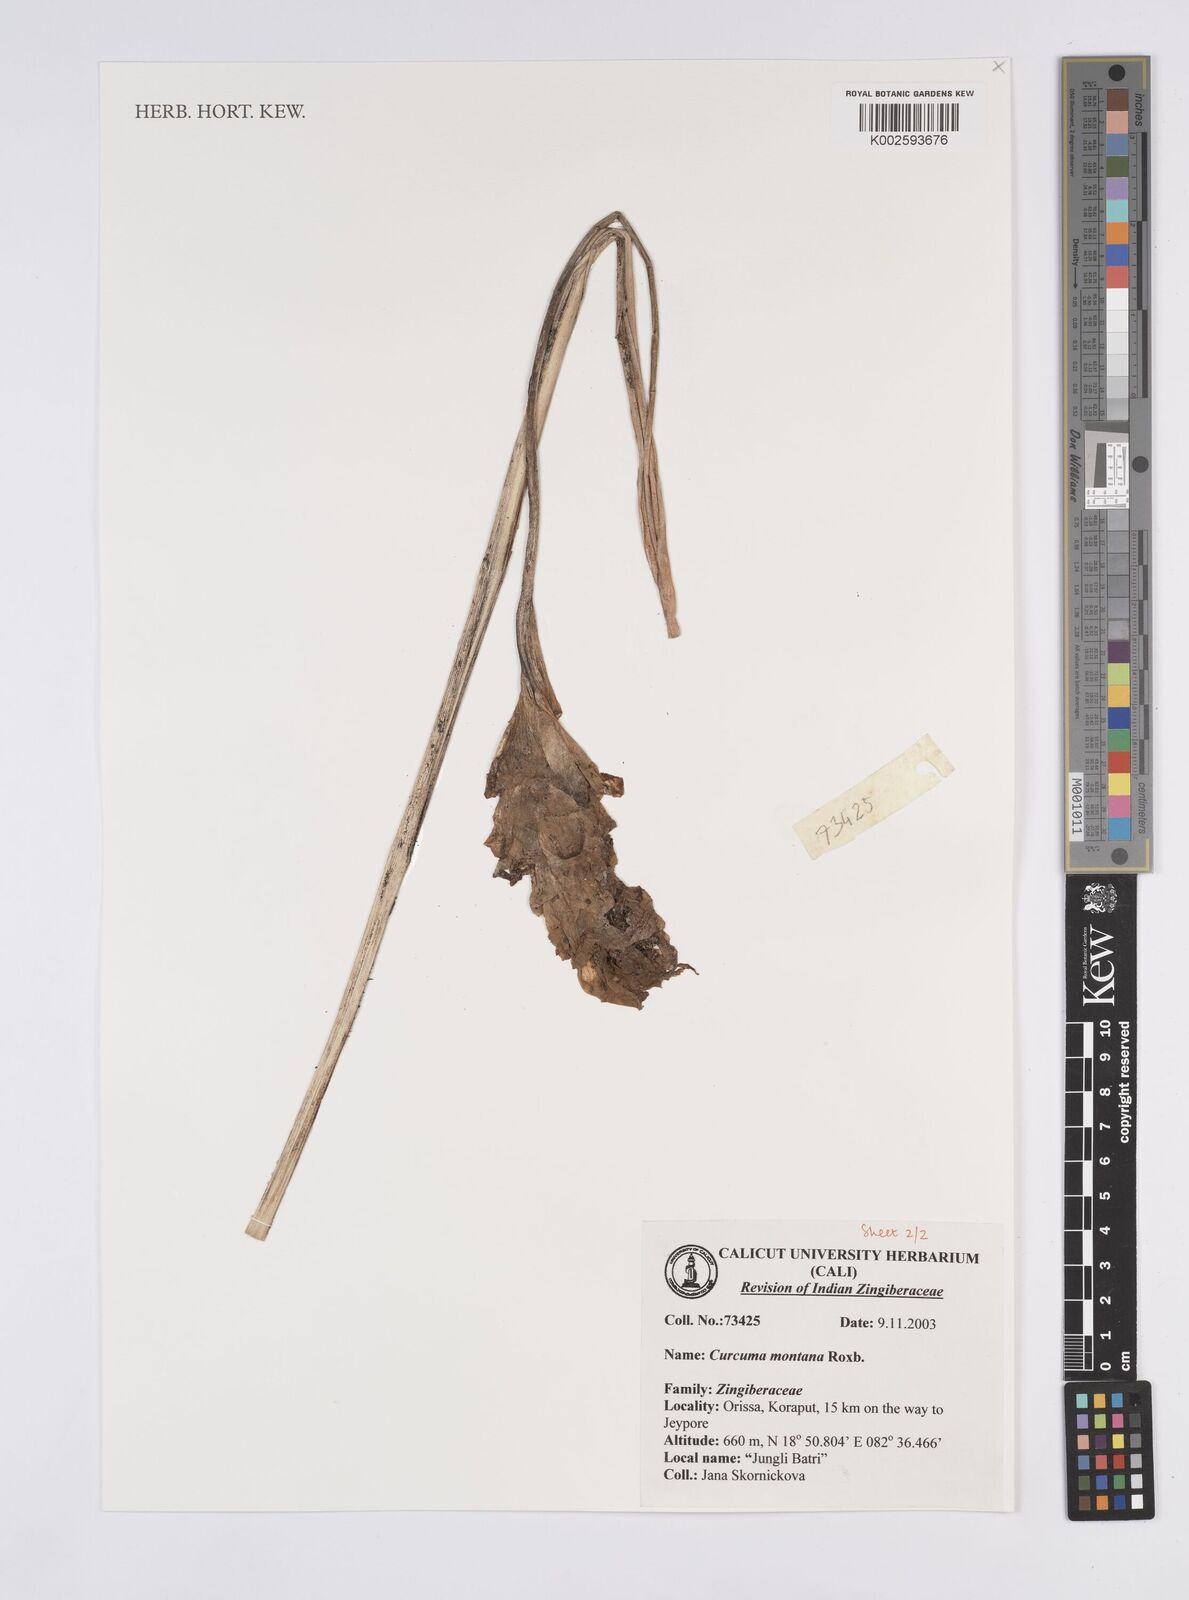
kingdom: Plantae
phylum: Tracheophyta
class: Liliopsida
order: Zingiberales
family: Zingiberaceae
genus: Curcuma
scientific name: Curcuma montana
